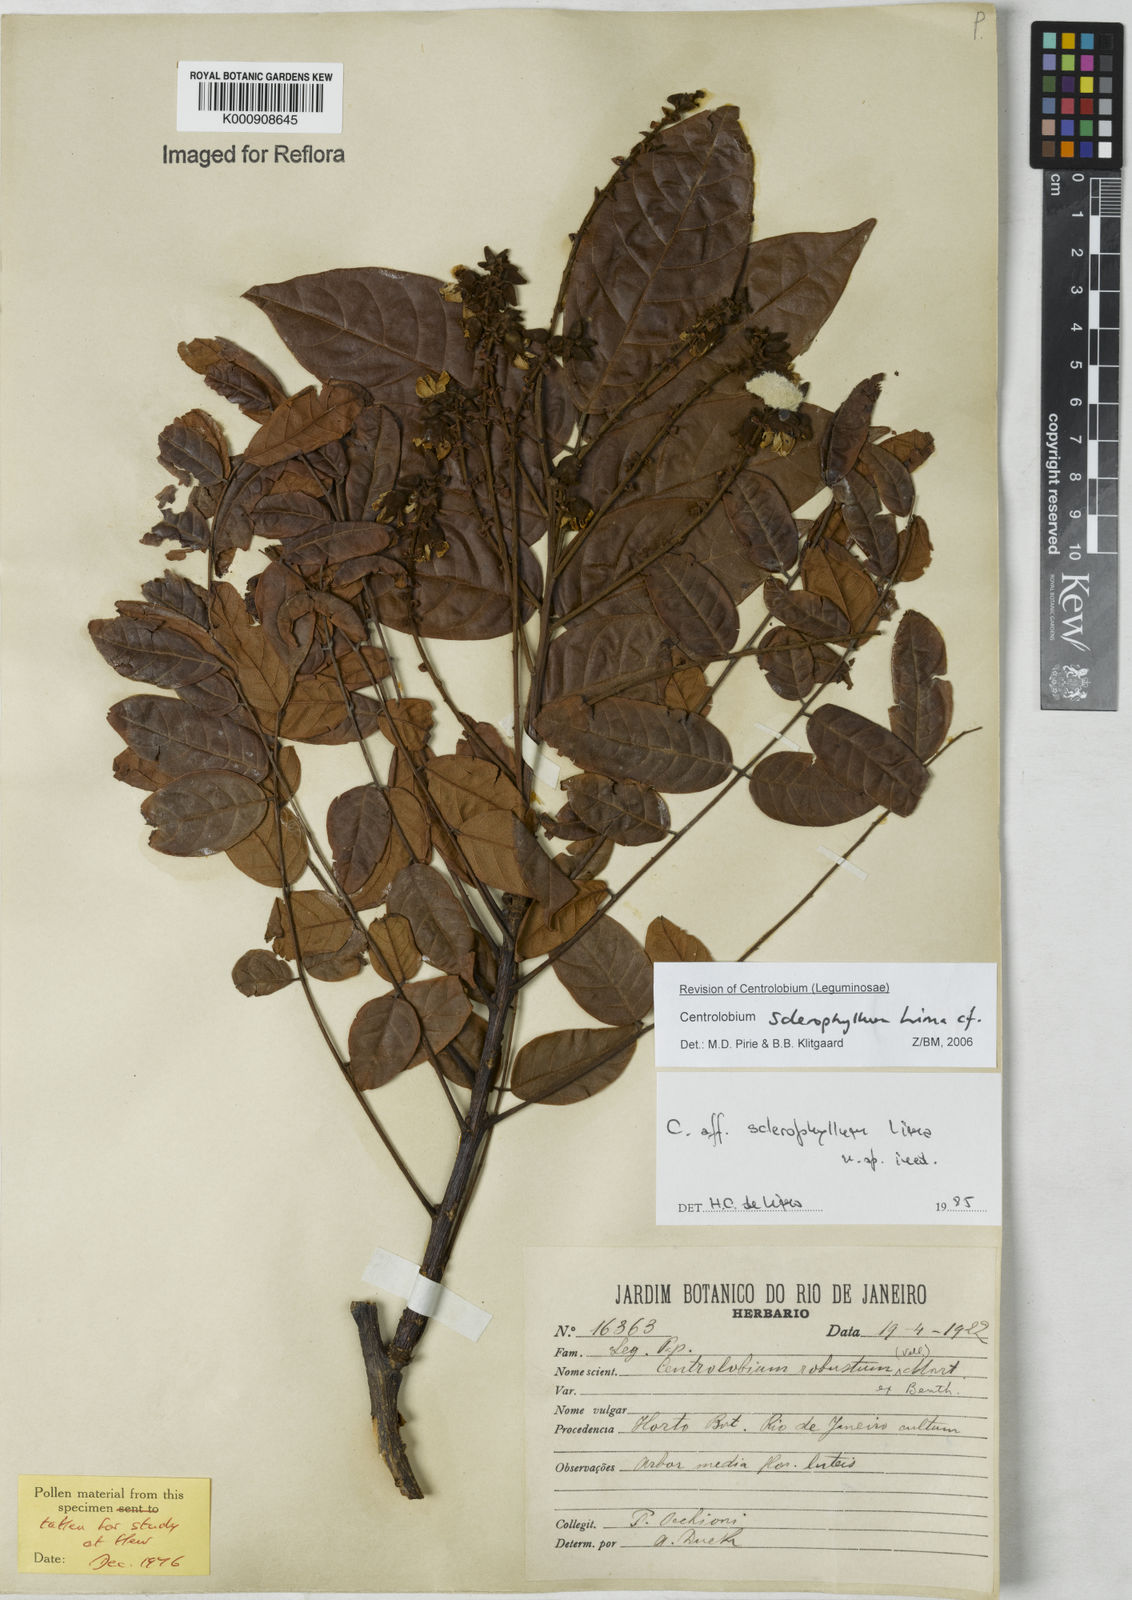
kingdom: Plantae
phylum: Tracheophyta
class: Magnoliopsida
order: Fabales
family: Fabaceae
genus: Centrolobium
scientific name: Centrolobium robustum
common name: Zebrawood
